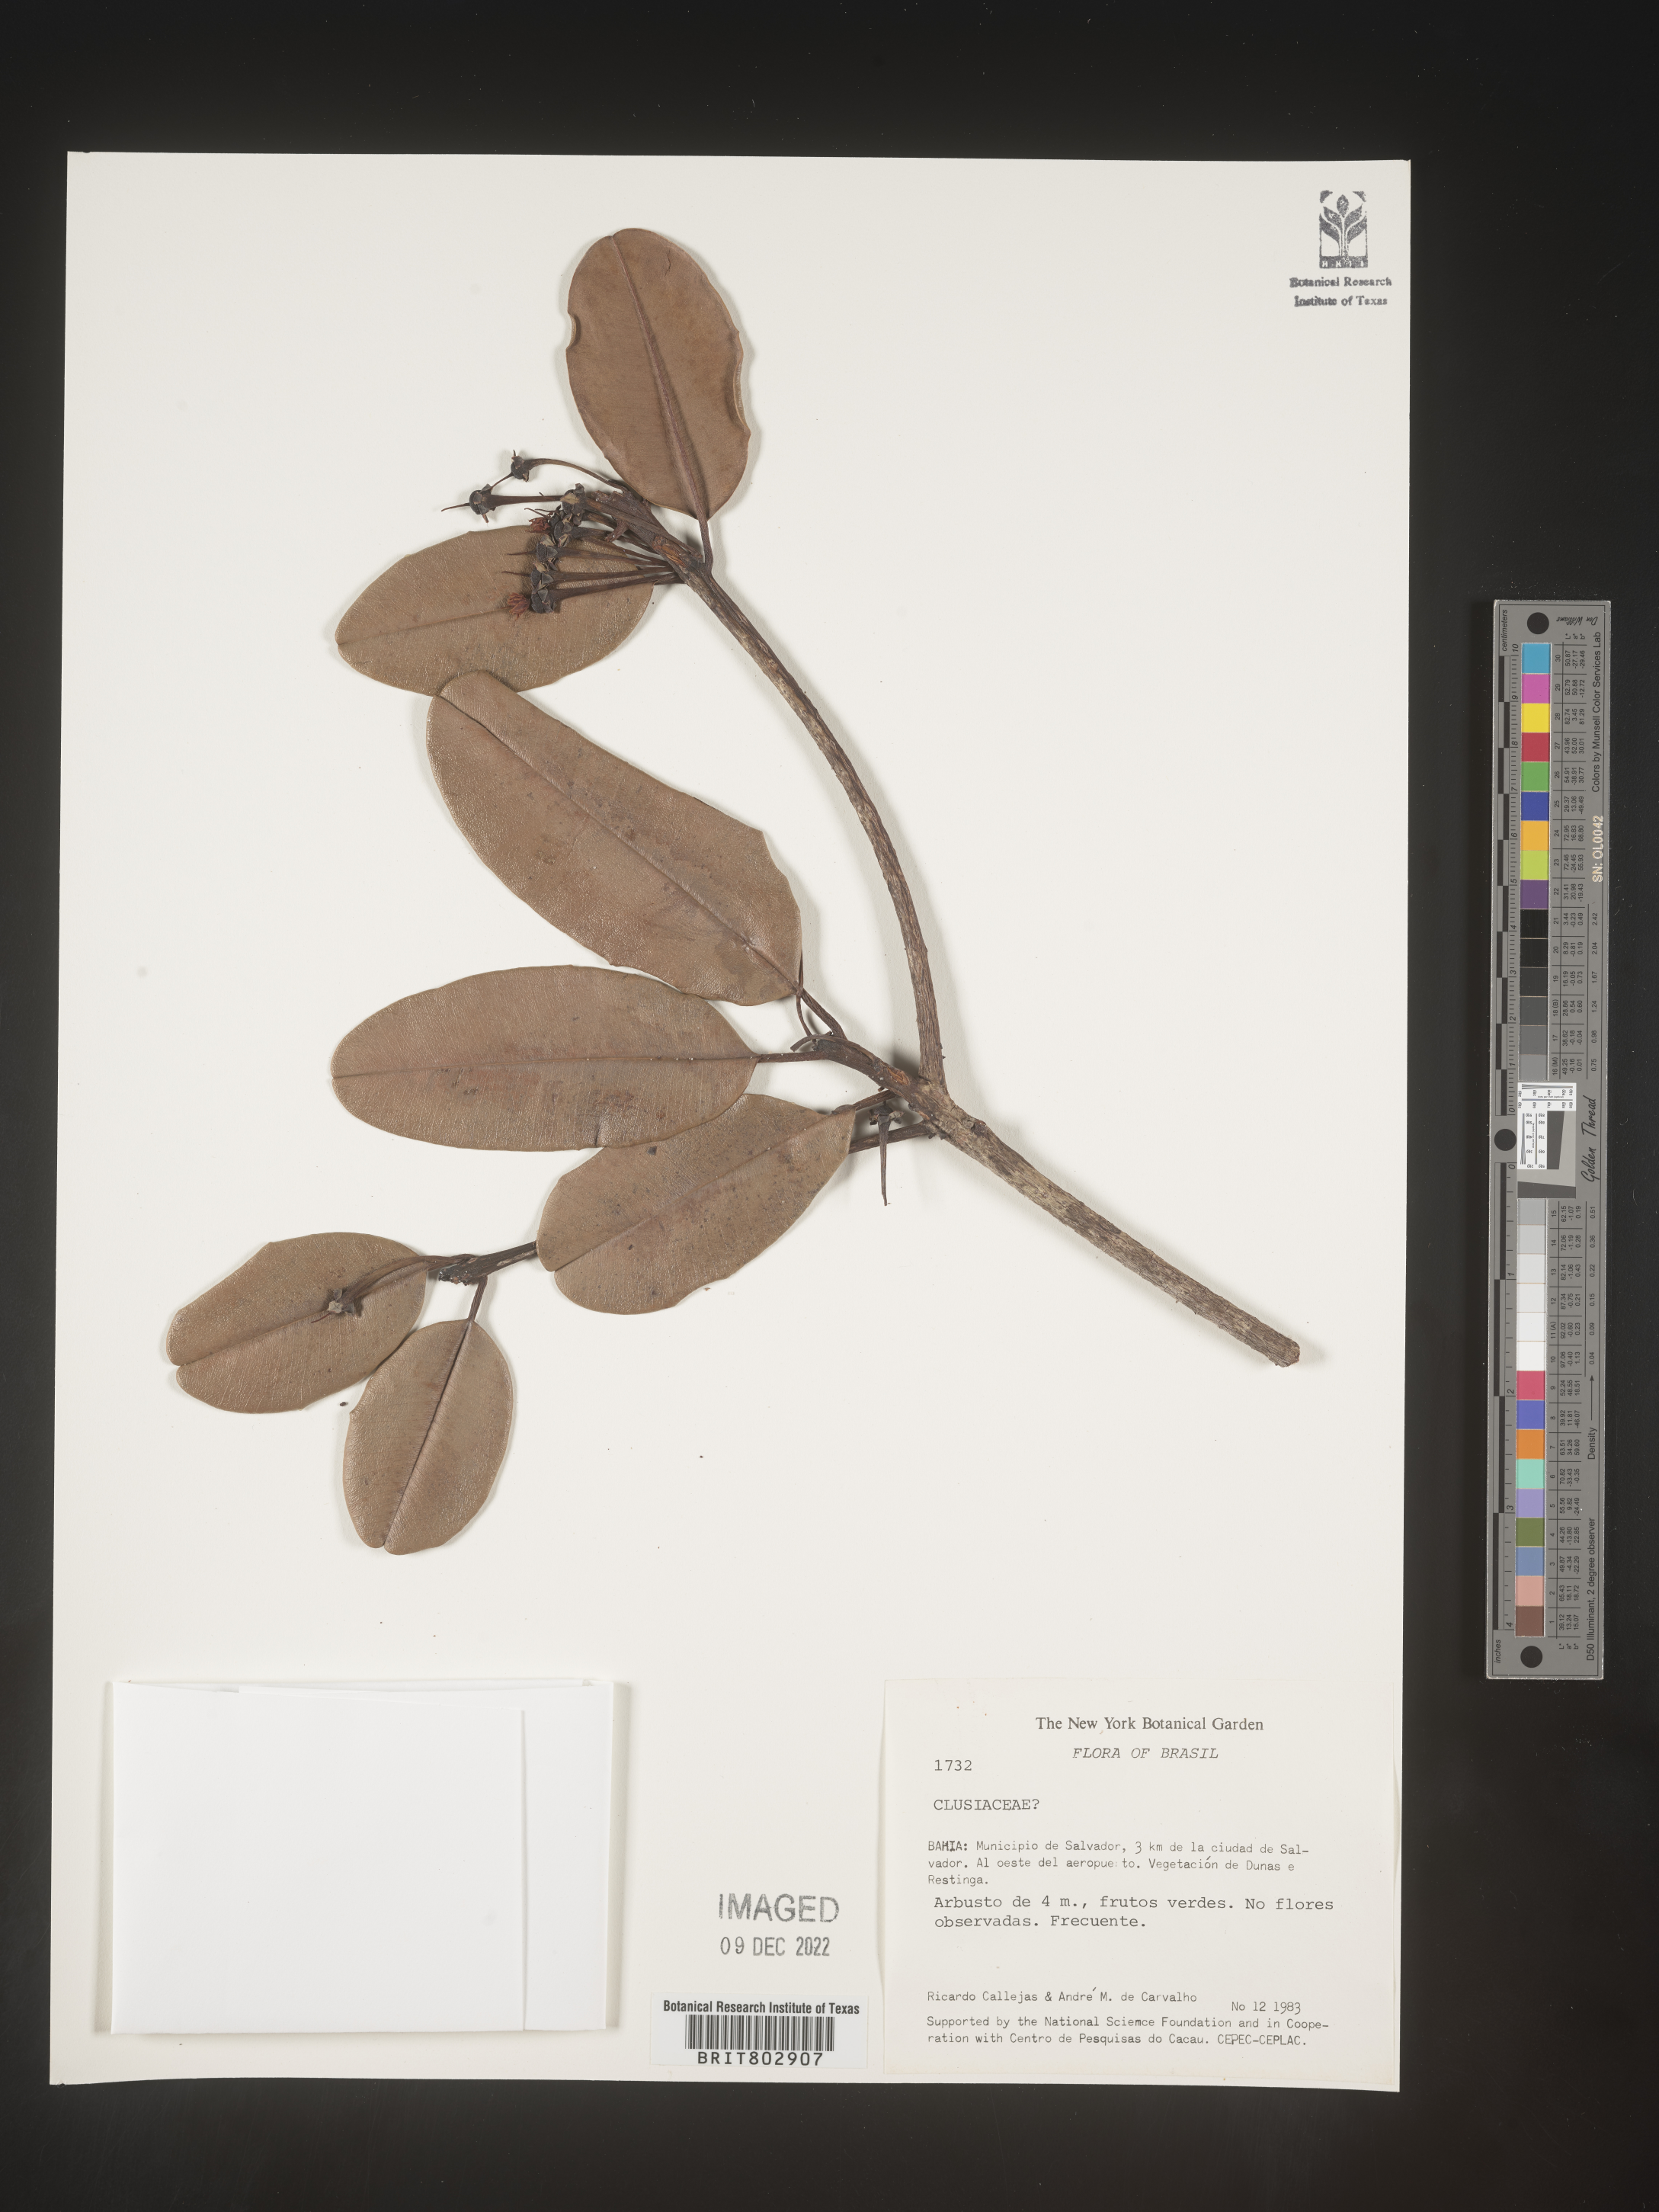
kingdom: Plantae
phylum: Tracheophyta
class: Magnoliopsida
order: Malpighiales
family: Calophyllaceae
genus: Kielmeyera
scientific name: Kielmeyera
